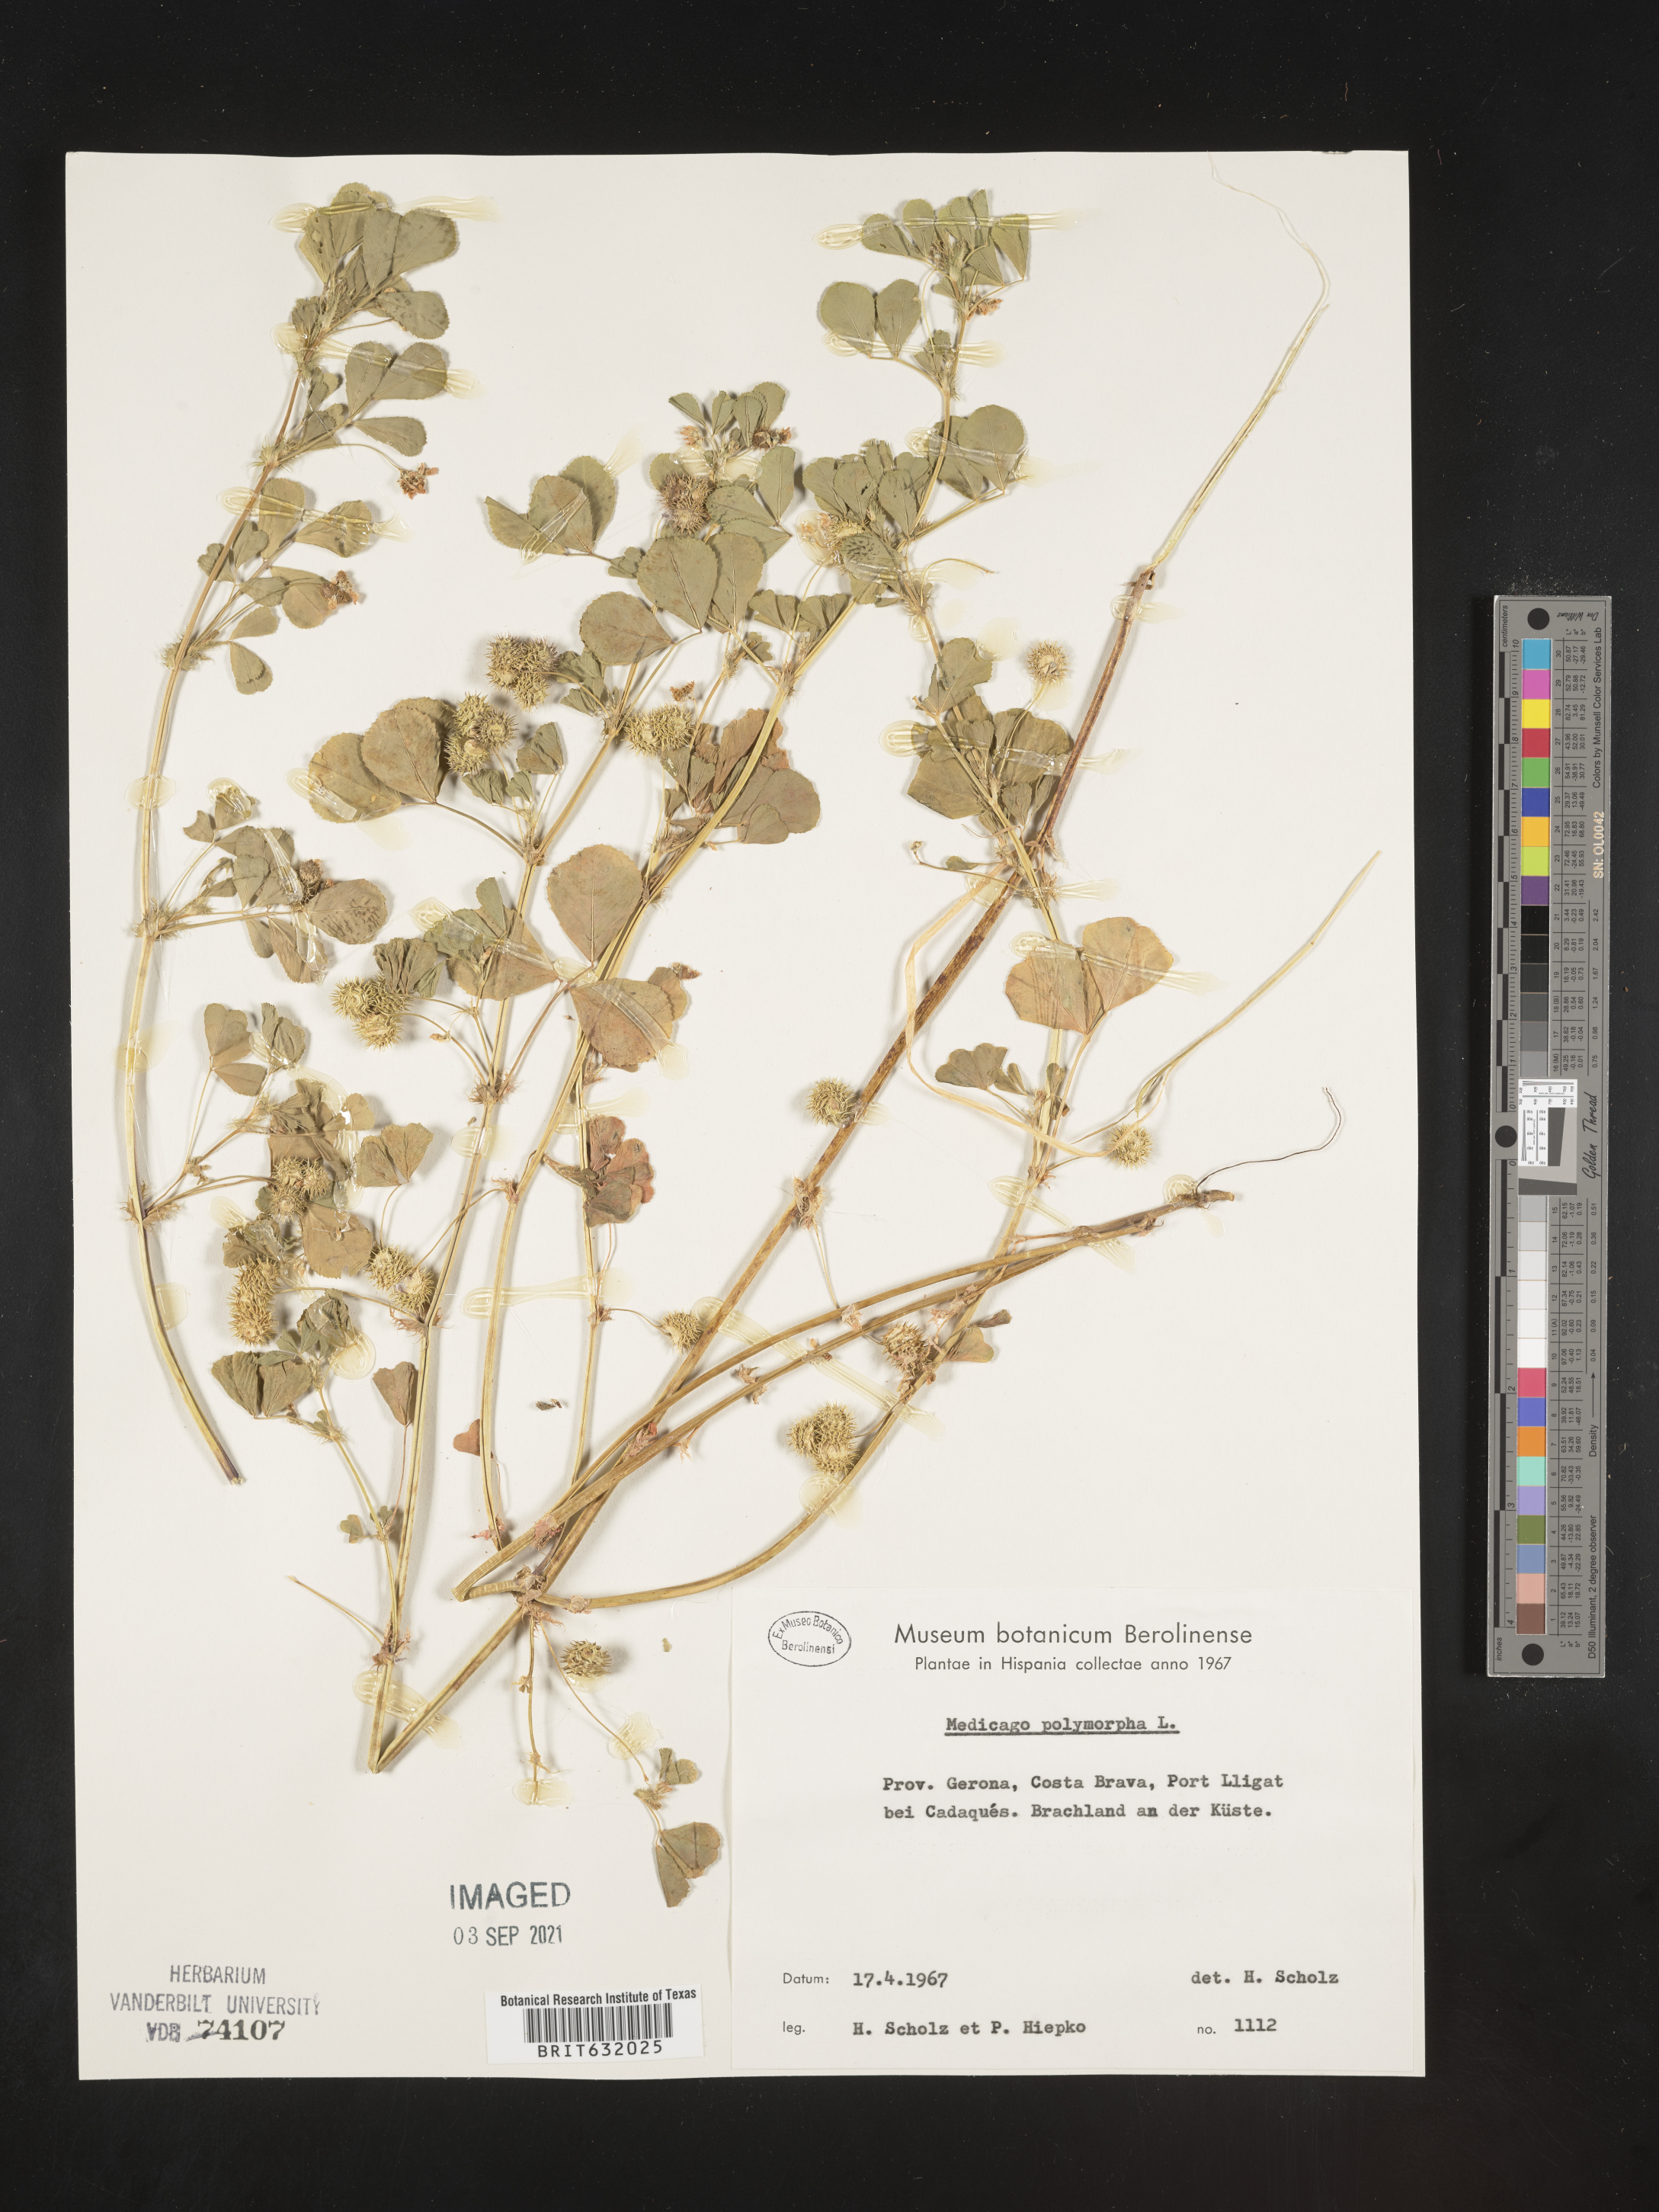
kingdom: Plantae
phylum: Tracheophyta
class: Magnoliopsida
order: Fabales
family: Fabaceae
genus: Medicago
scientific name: Medicago
